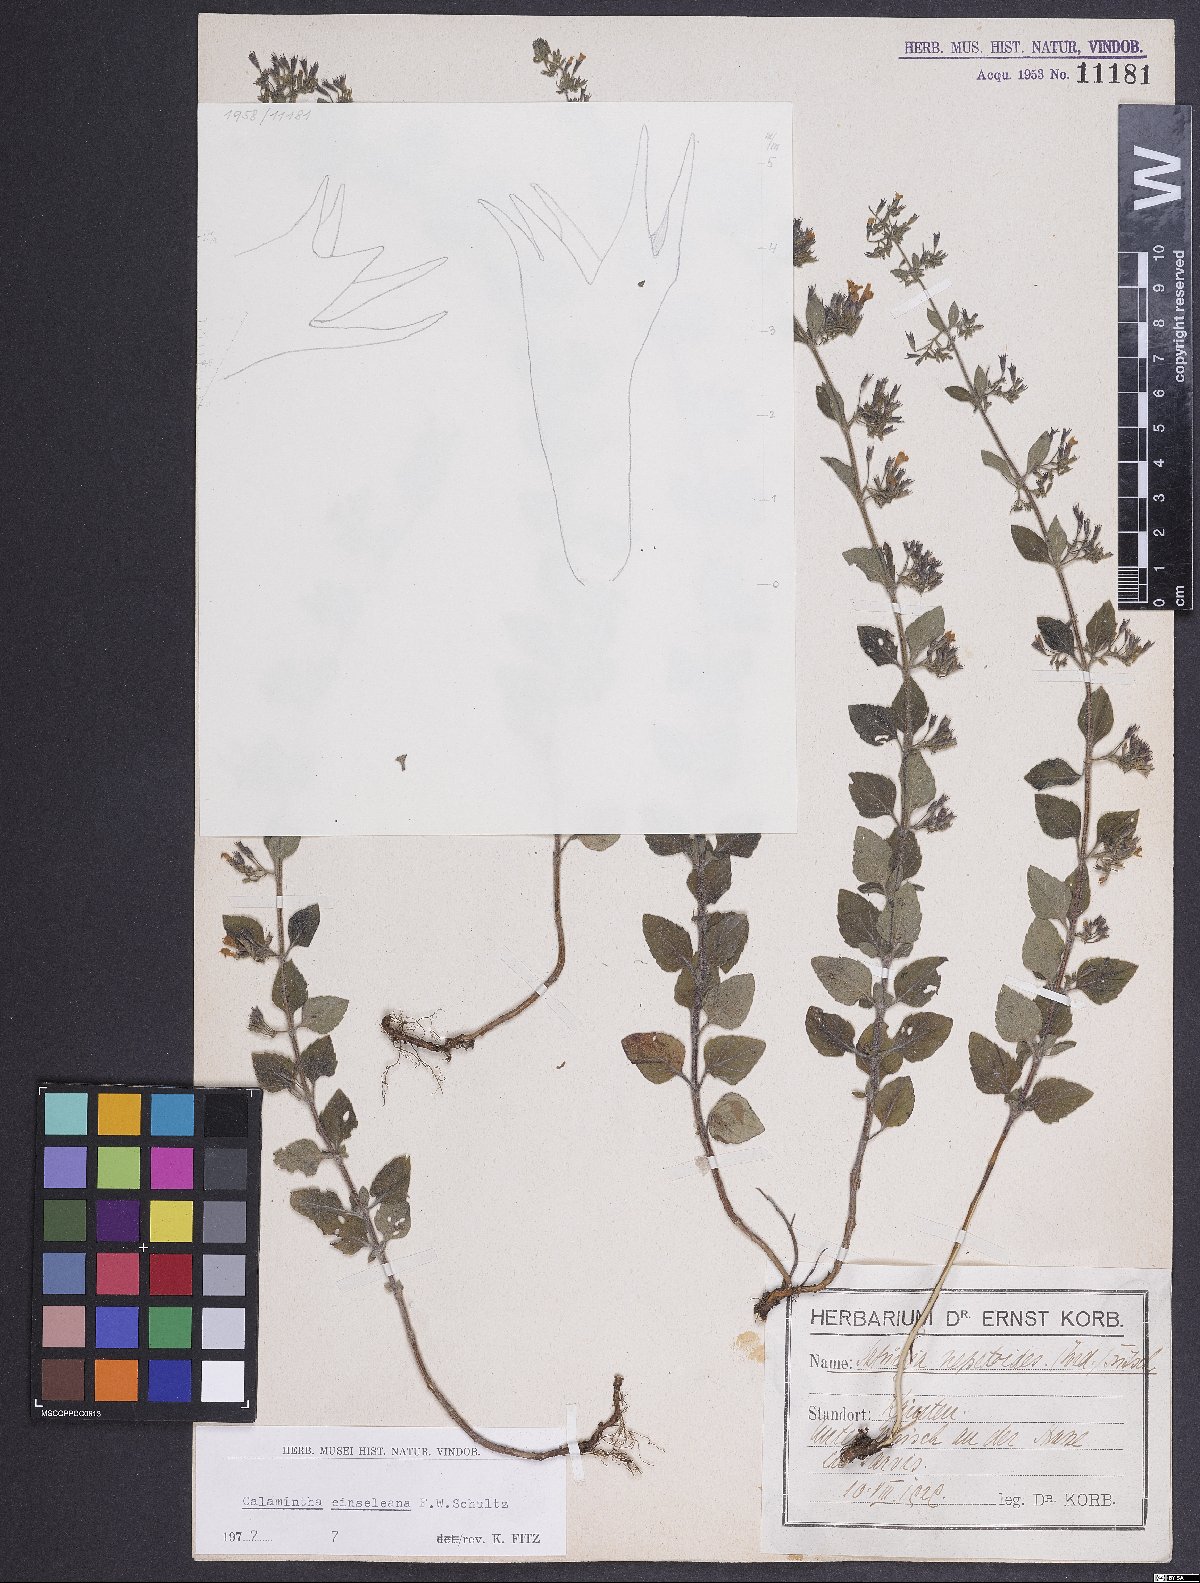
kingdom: Plantae
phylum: Tracheophyta
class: Magnoliopsida
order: Lamiales
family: Lamiaceae
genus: Clinopodium
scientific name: Clinopodium nepeta
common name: Lesser calamint
